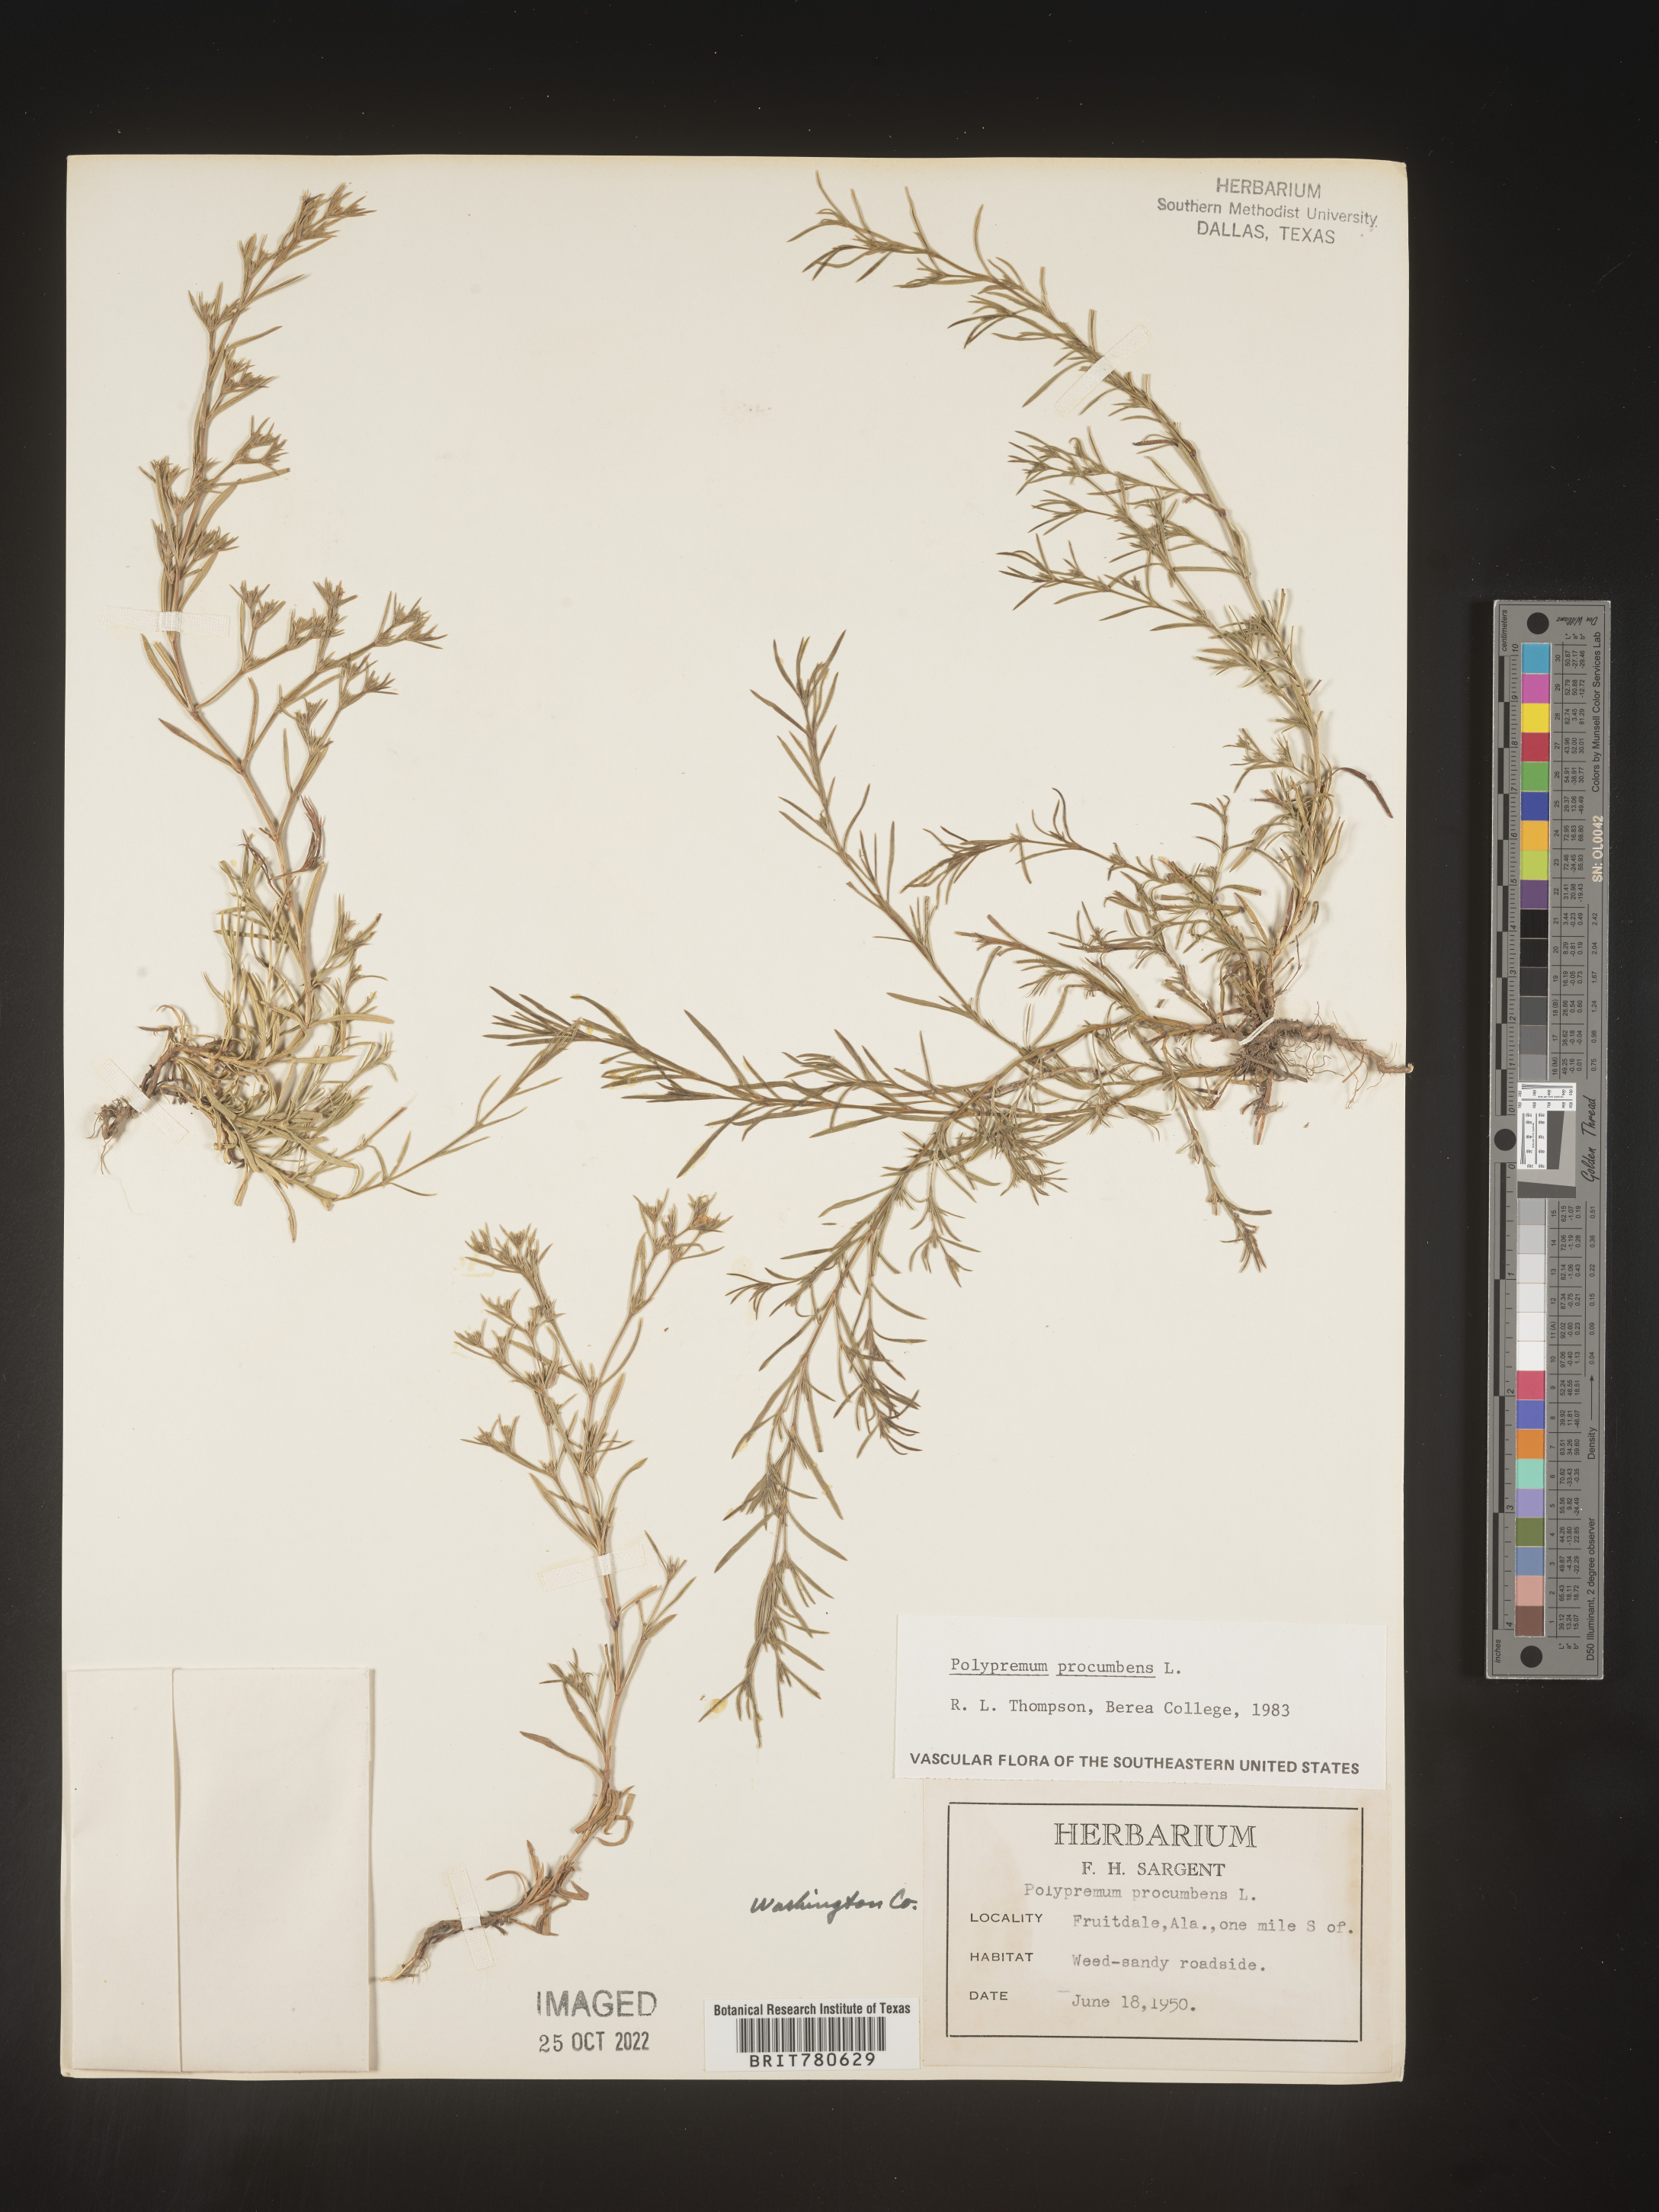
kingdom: Plantae
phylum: Tracheophyta
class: Magnoliopsida
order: Lamiales
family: Tetrachondraceae
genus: Polypremum
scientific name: Polypremum procumbens
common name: Juniper-leaf
